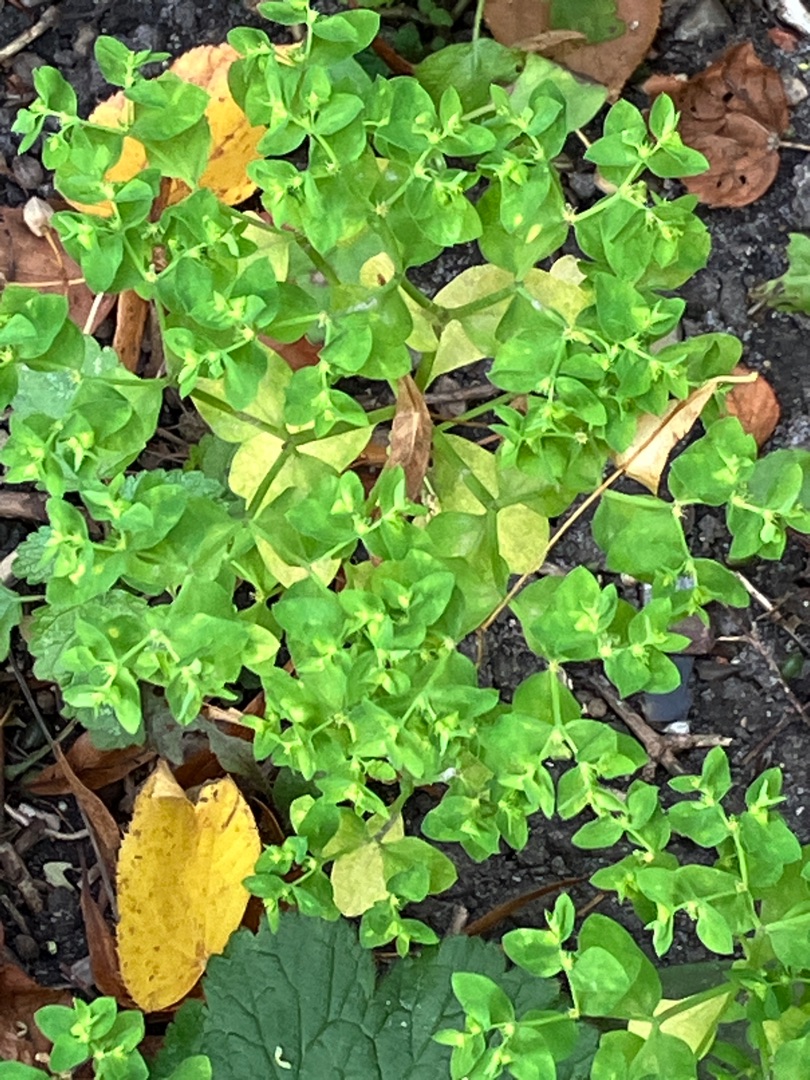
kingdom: Plantae
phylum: Tracheophyta
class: Magnoliopsida
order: Malpighiales
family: Euphorbiaceae
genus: Euphorbia
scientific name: Euphorbia peplus
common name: Gaffel-vortemælk
